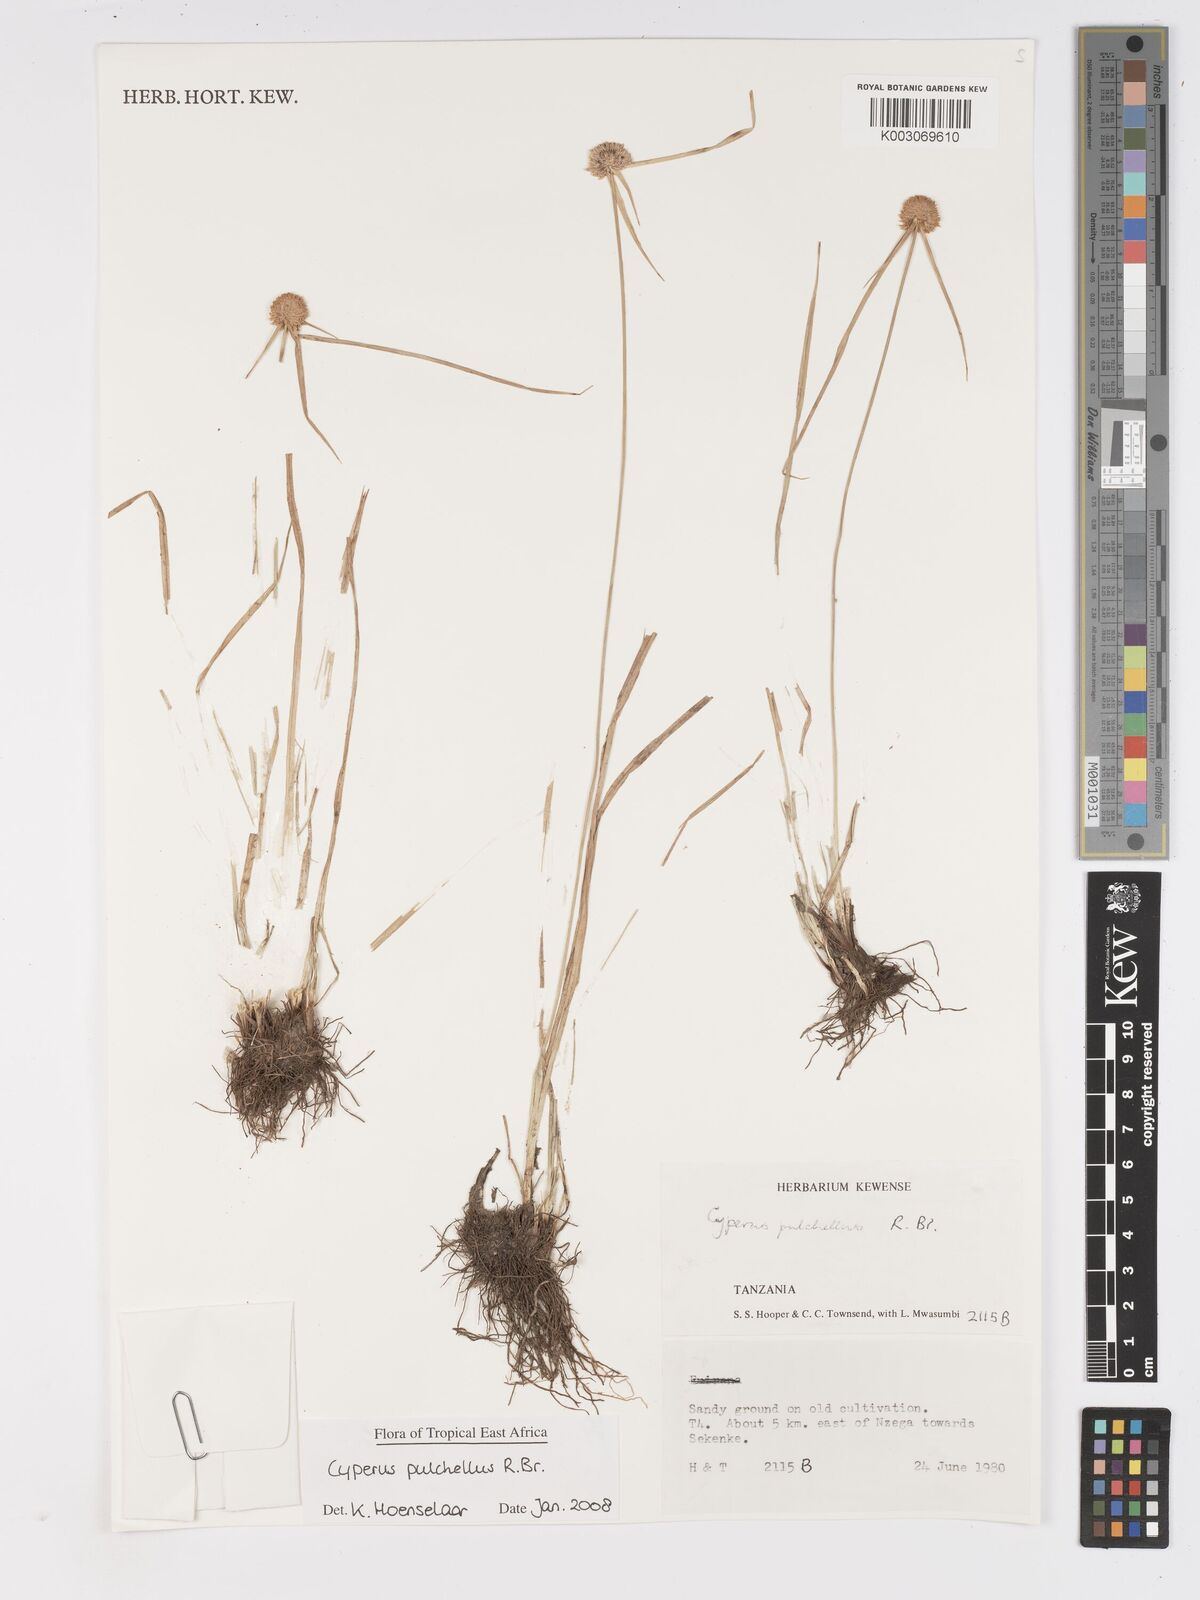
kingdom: Plantae
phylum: Tracheophyta
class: Liliopsida
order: Poales
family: Cyperaceae
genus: Cyperus
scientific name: Cyperus pulchellus
